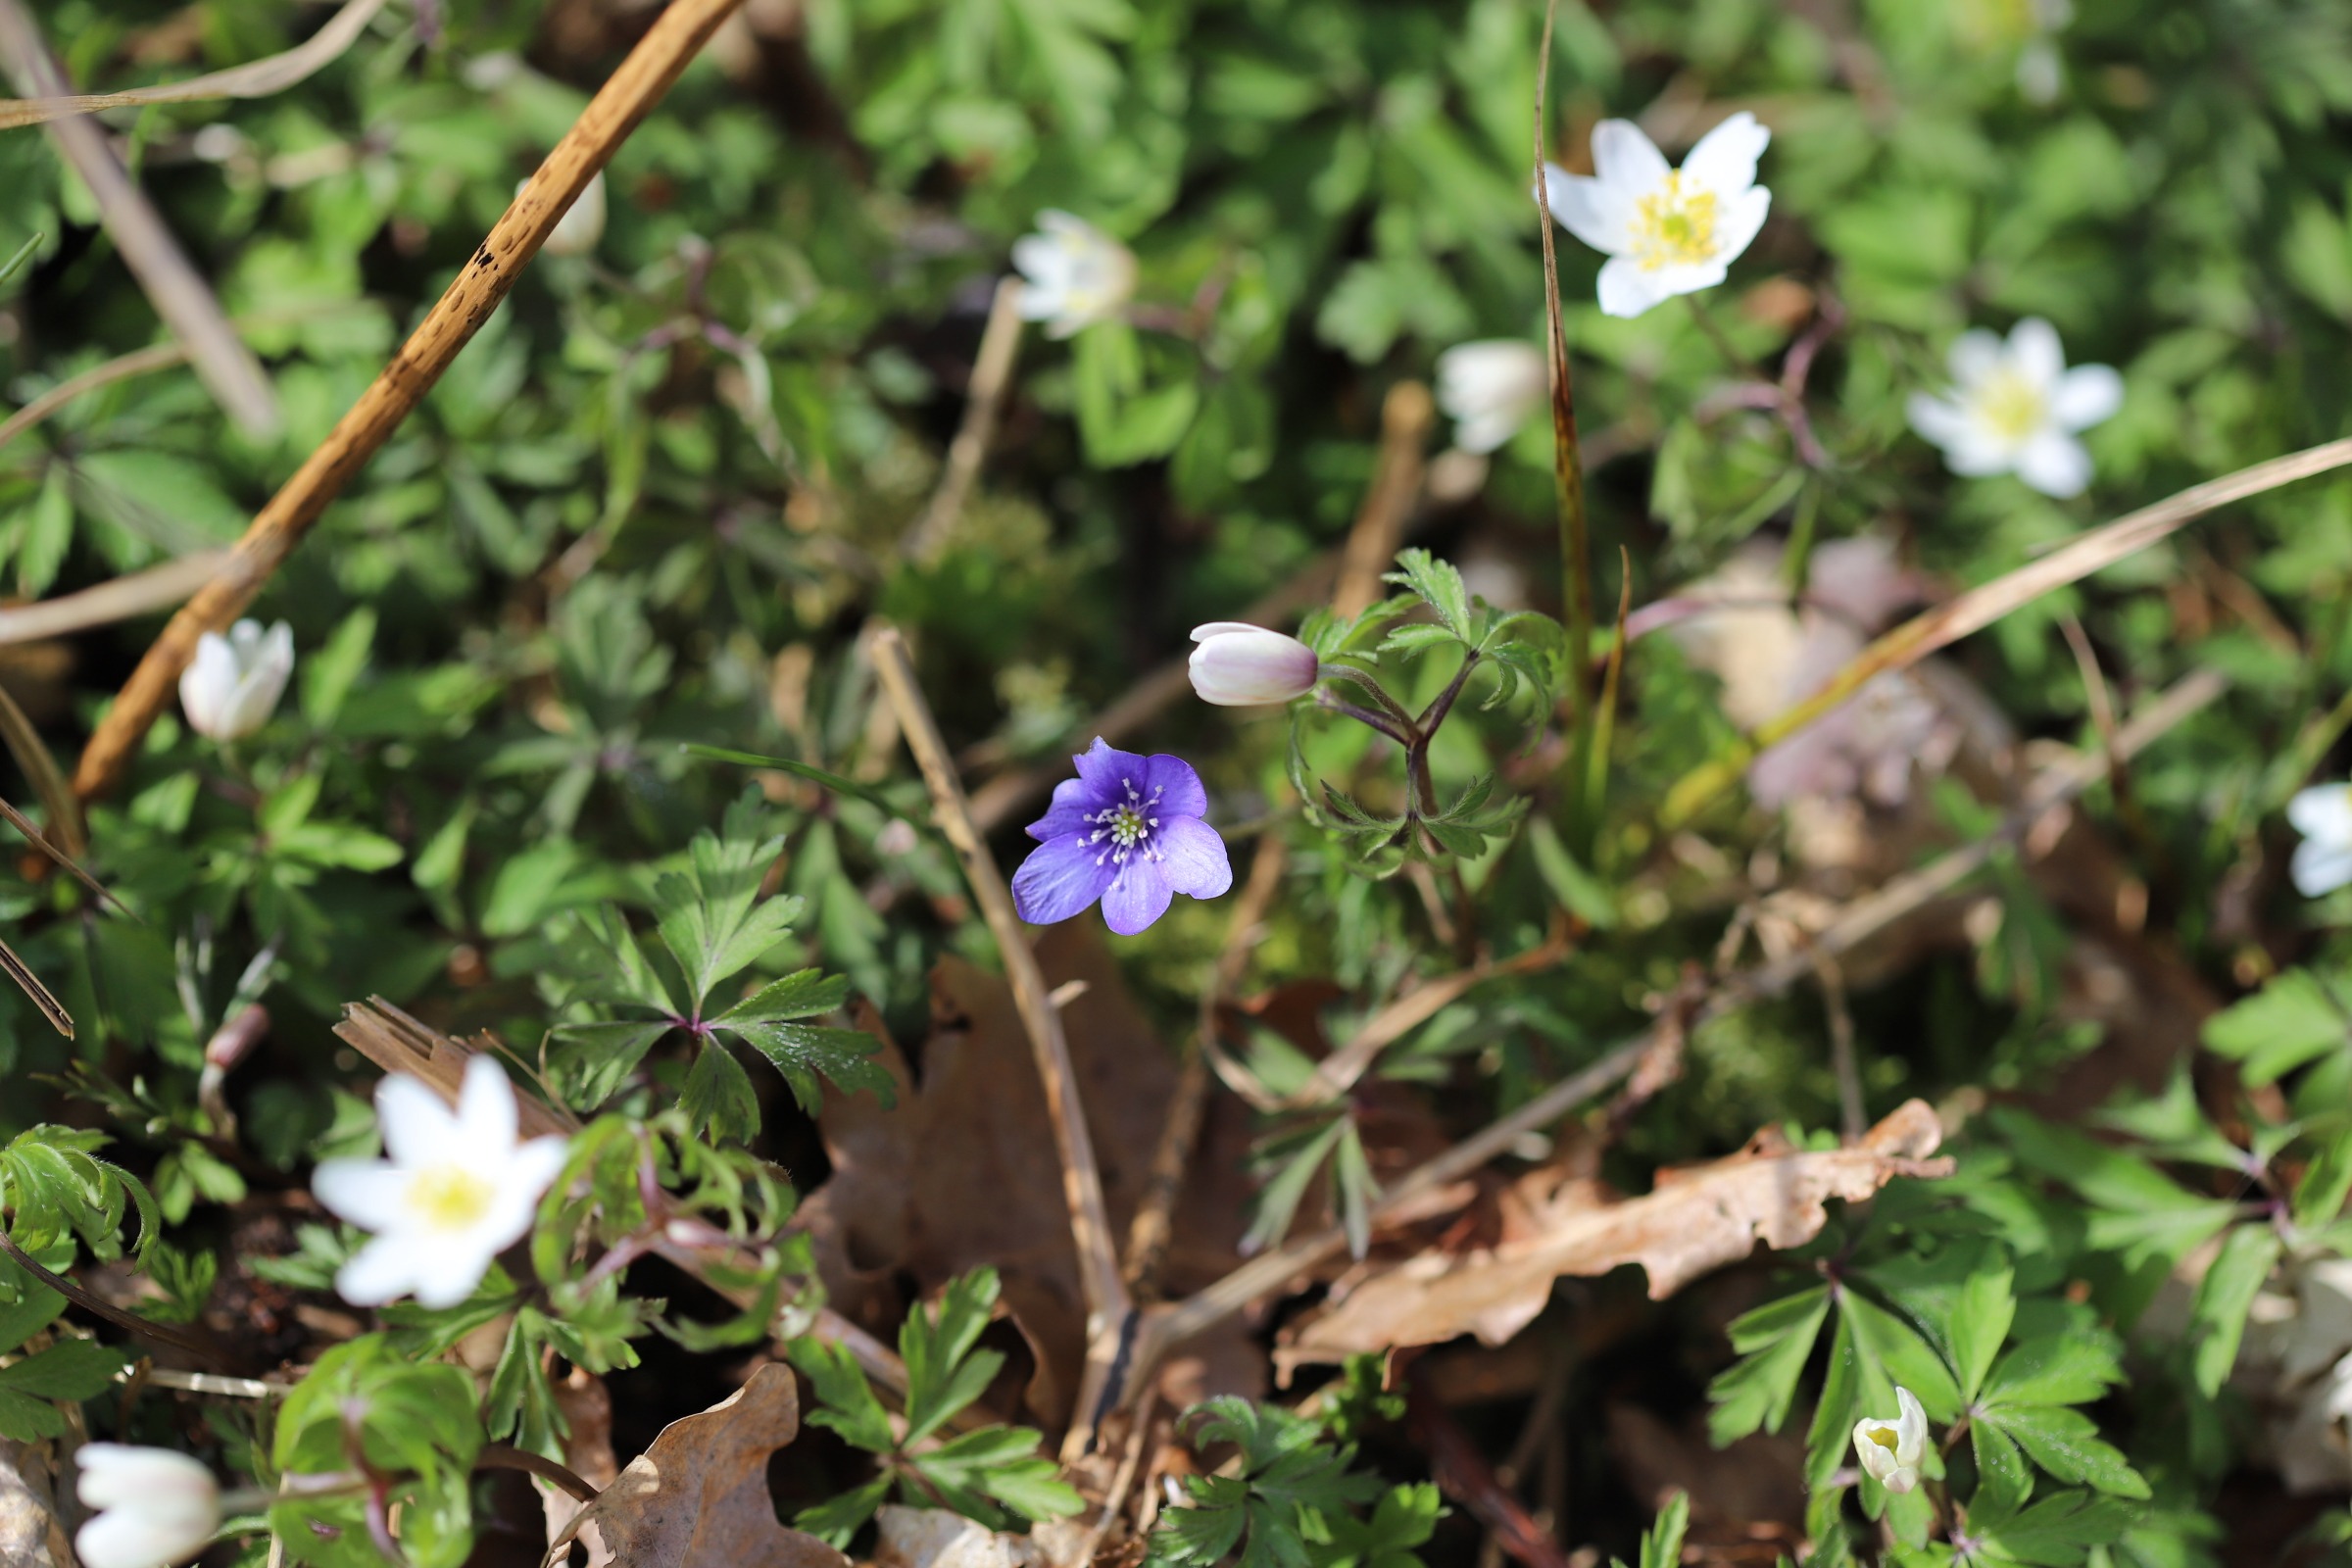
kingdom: Plantae
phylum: Tracheophyta
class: Magnoliopsida
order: Ranunculales
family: Ranunculaceae
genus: Hepatica
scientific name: Hepatica nobilis
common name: Blå anemone
